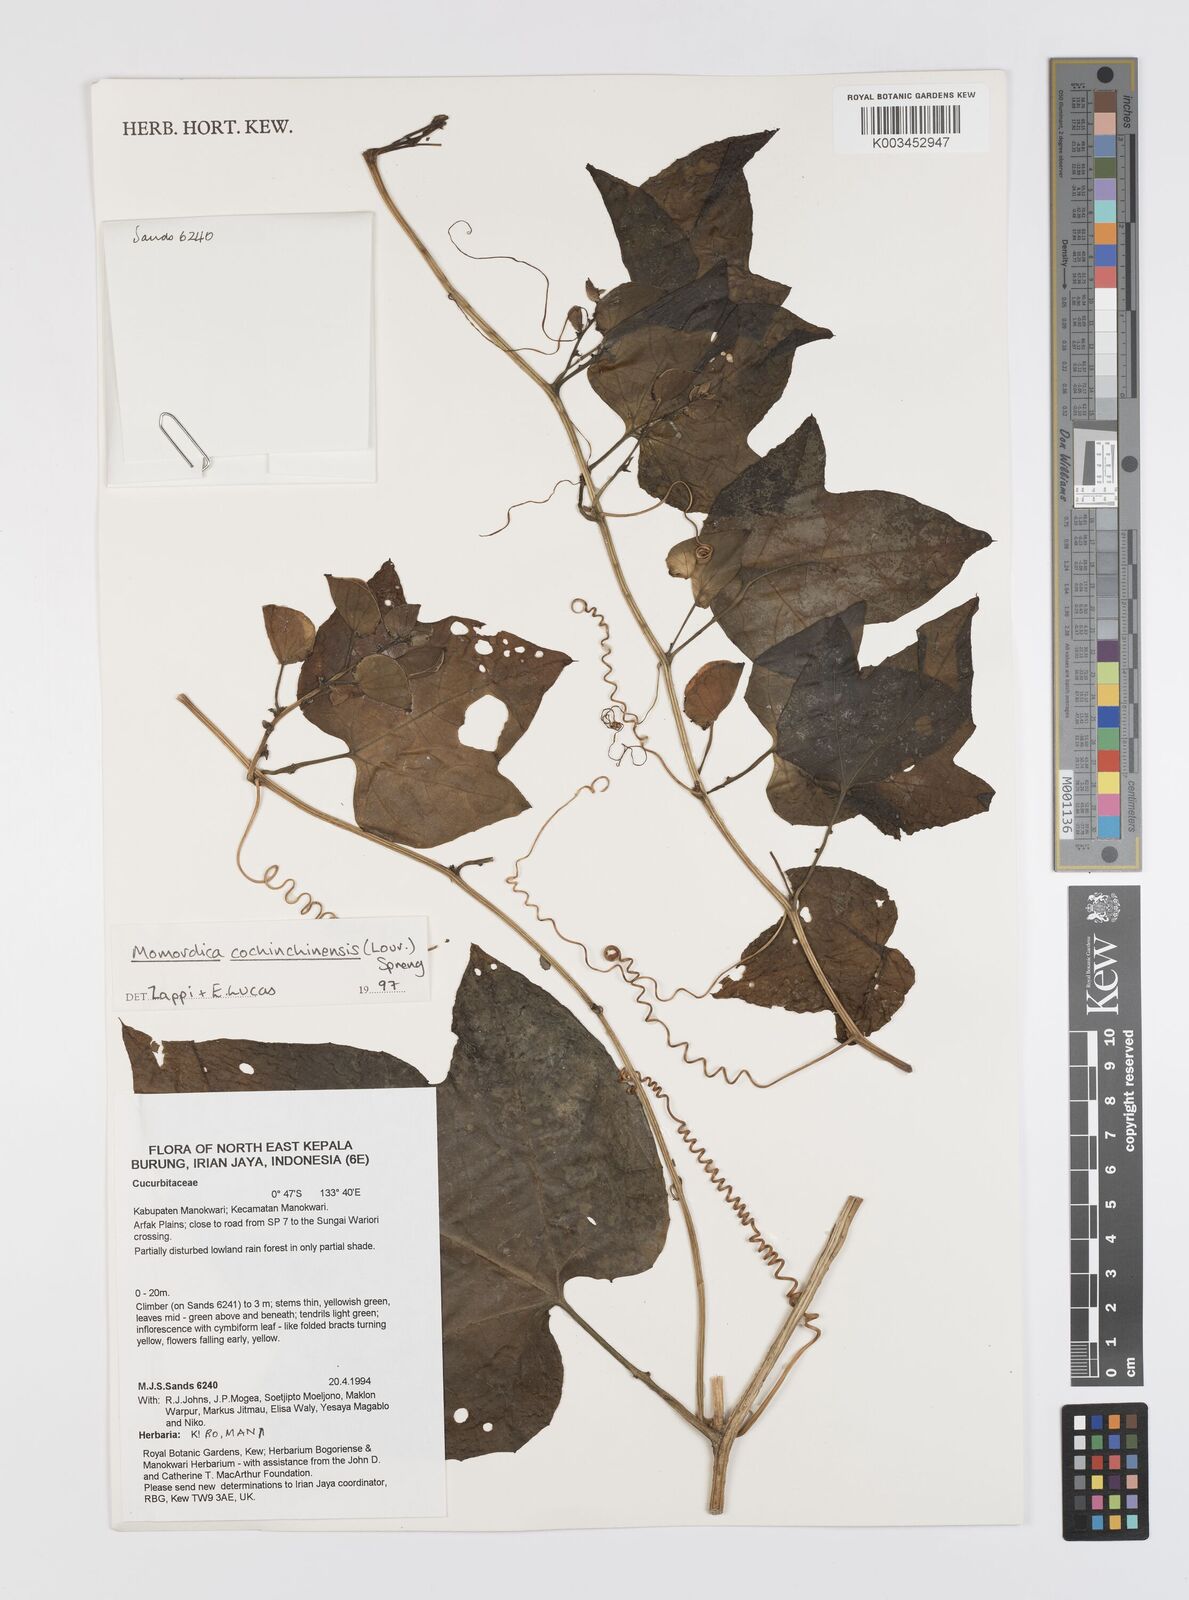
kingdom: Plantae
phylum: Tracheophyta
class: Magnoliopsida
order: Cucurbitales
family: Cucurbitaceae
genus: Momordica
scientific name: Momordica cochinchinensis
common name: Chinese bitter-cucumber
